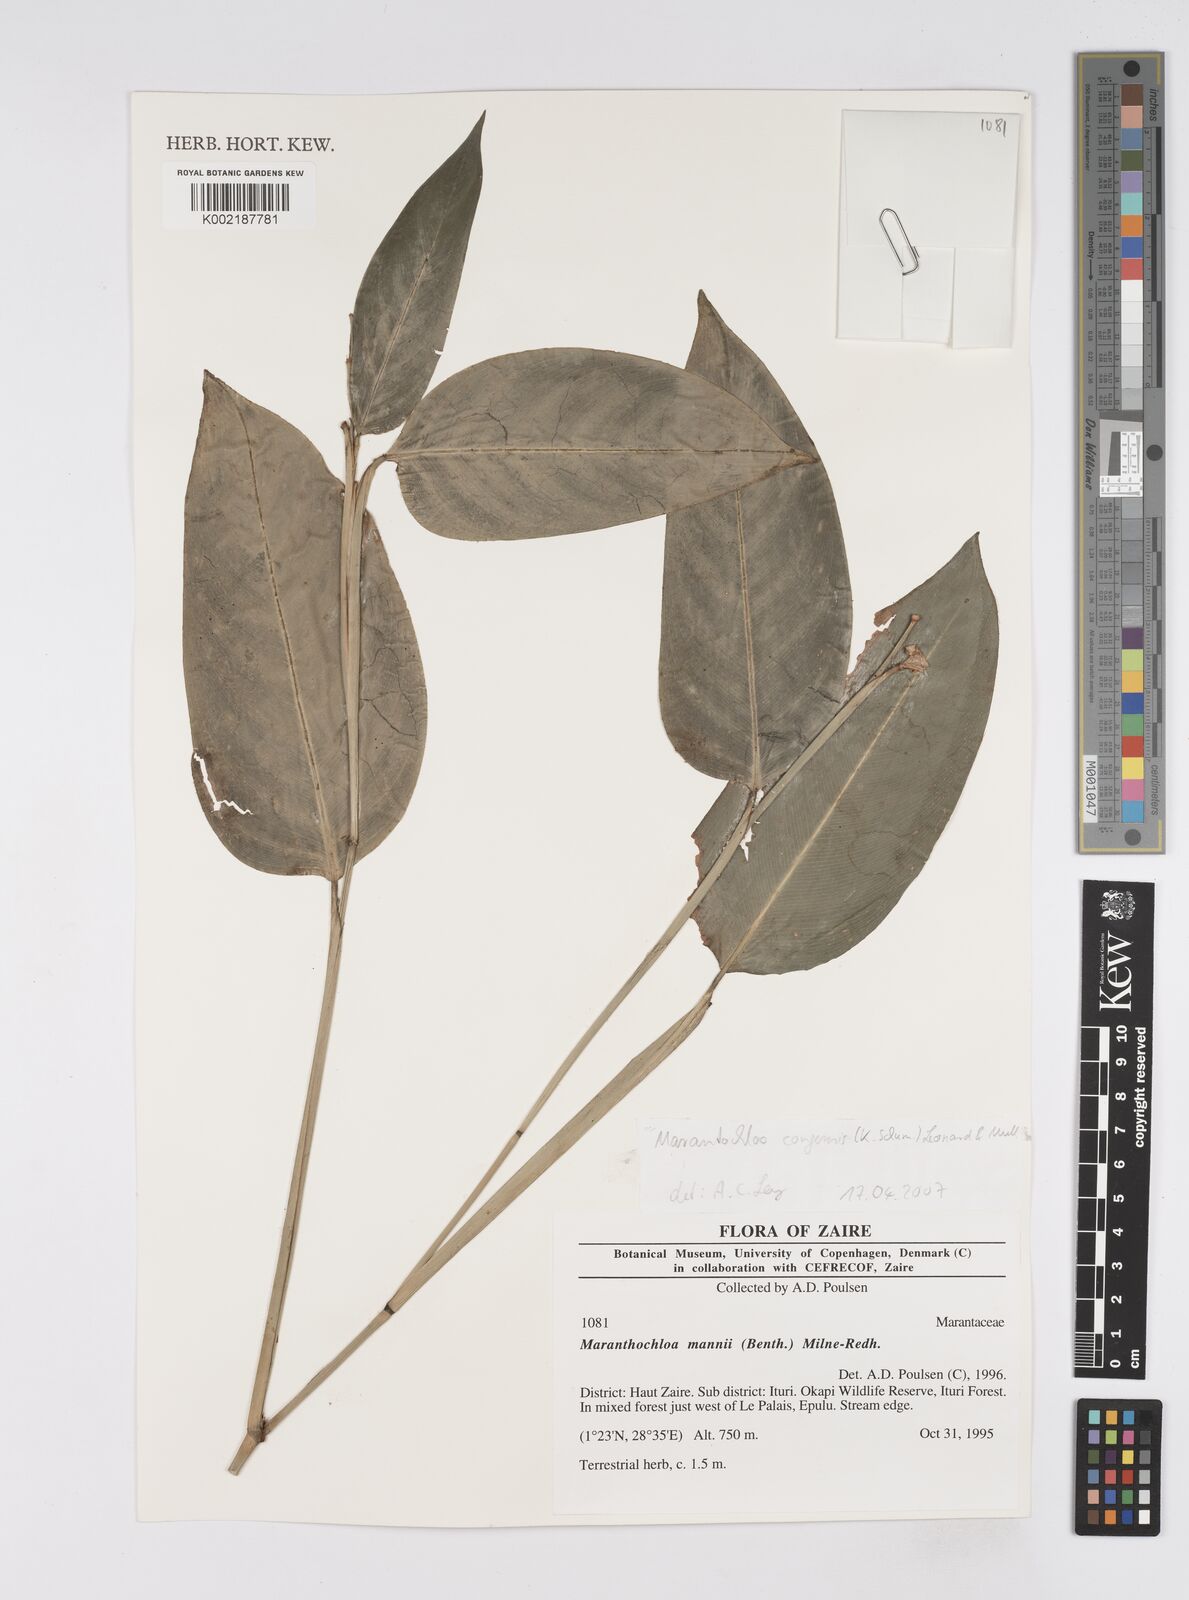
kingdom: Plantae
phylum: Tracheophyta
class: Liliopsida
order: Zingiberales
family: Marantaceae
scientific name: Marantaceae
